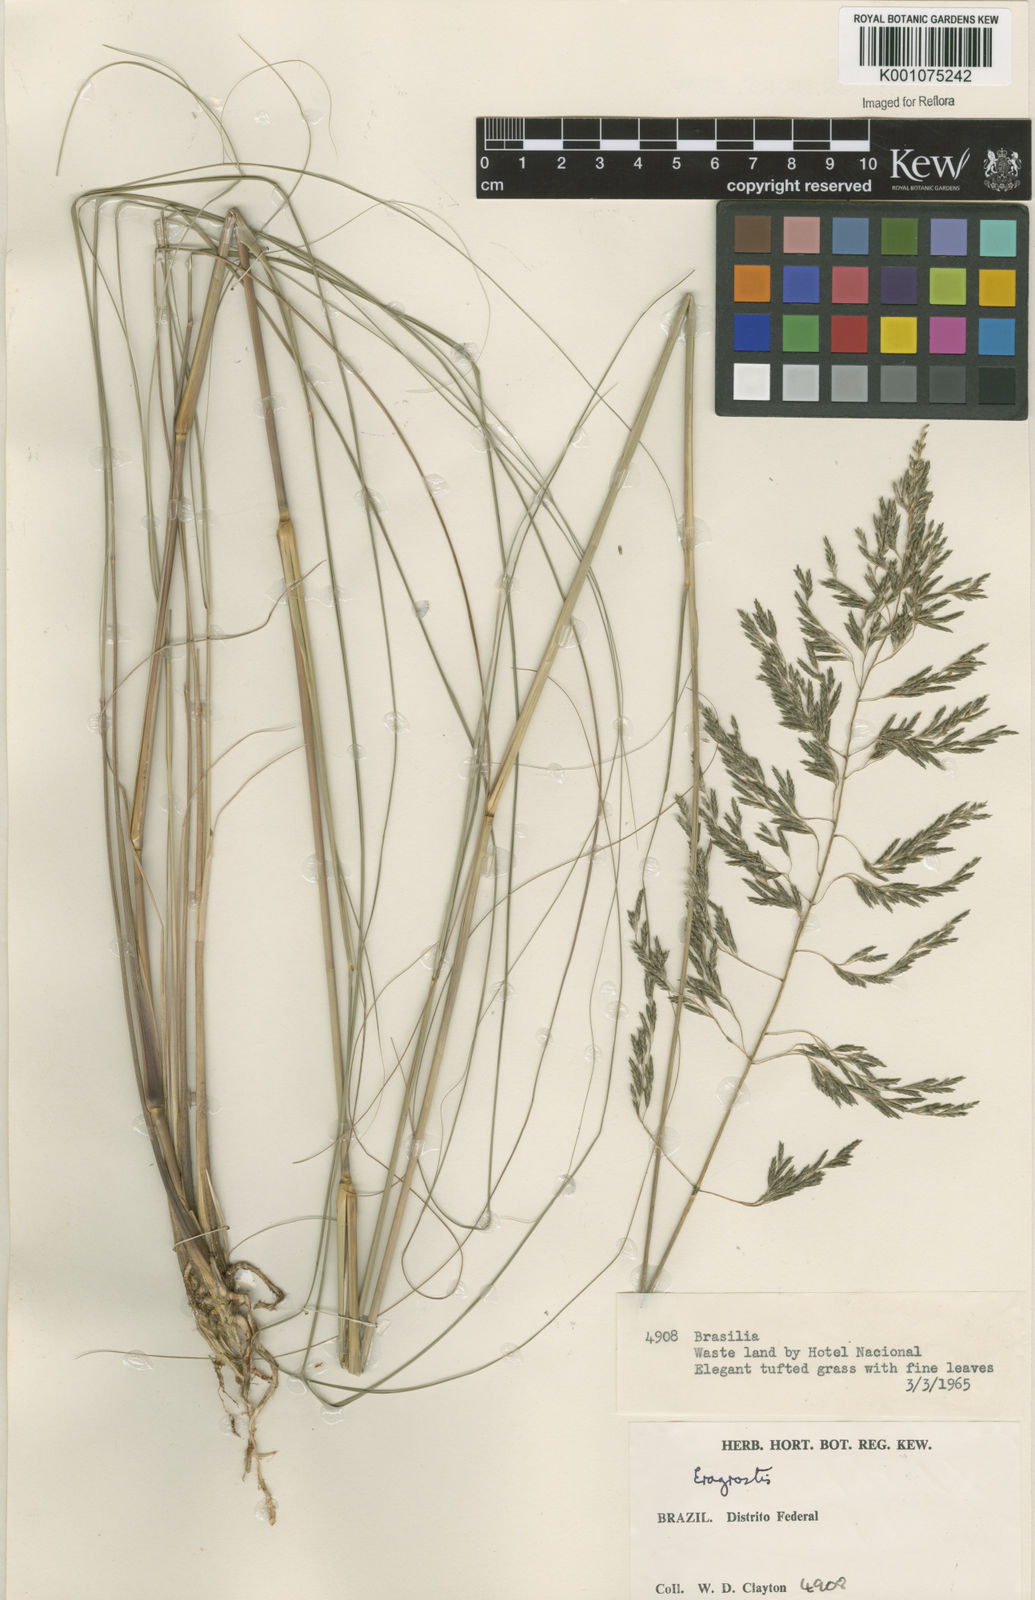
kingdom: Plantae
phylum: Tracheophyta
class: Liliopsida
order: Poales
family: Poaceae
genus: Eragrostis
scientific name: Eragrostis curvula
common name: African love-grass
